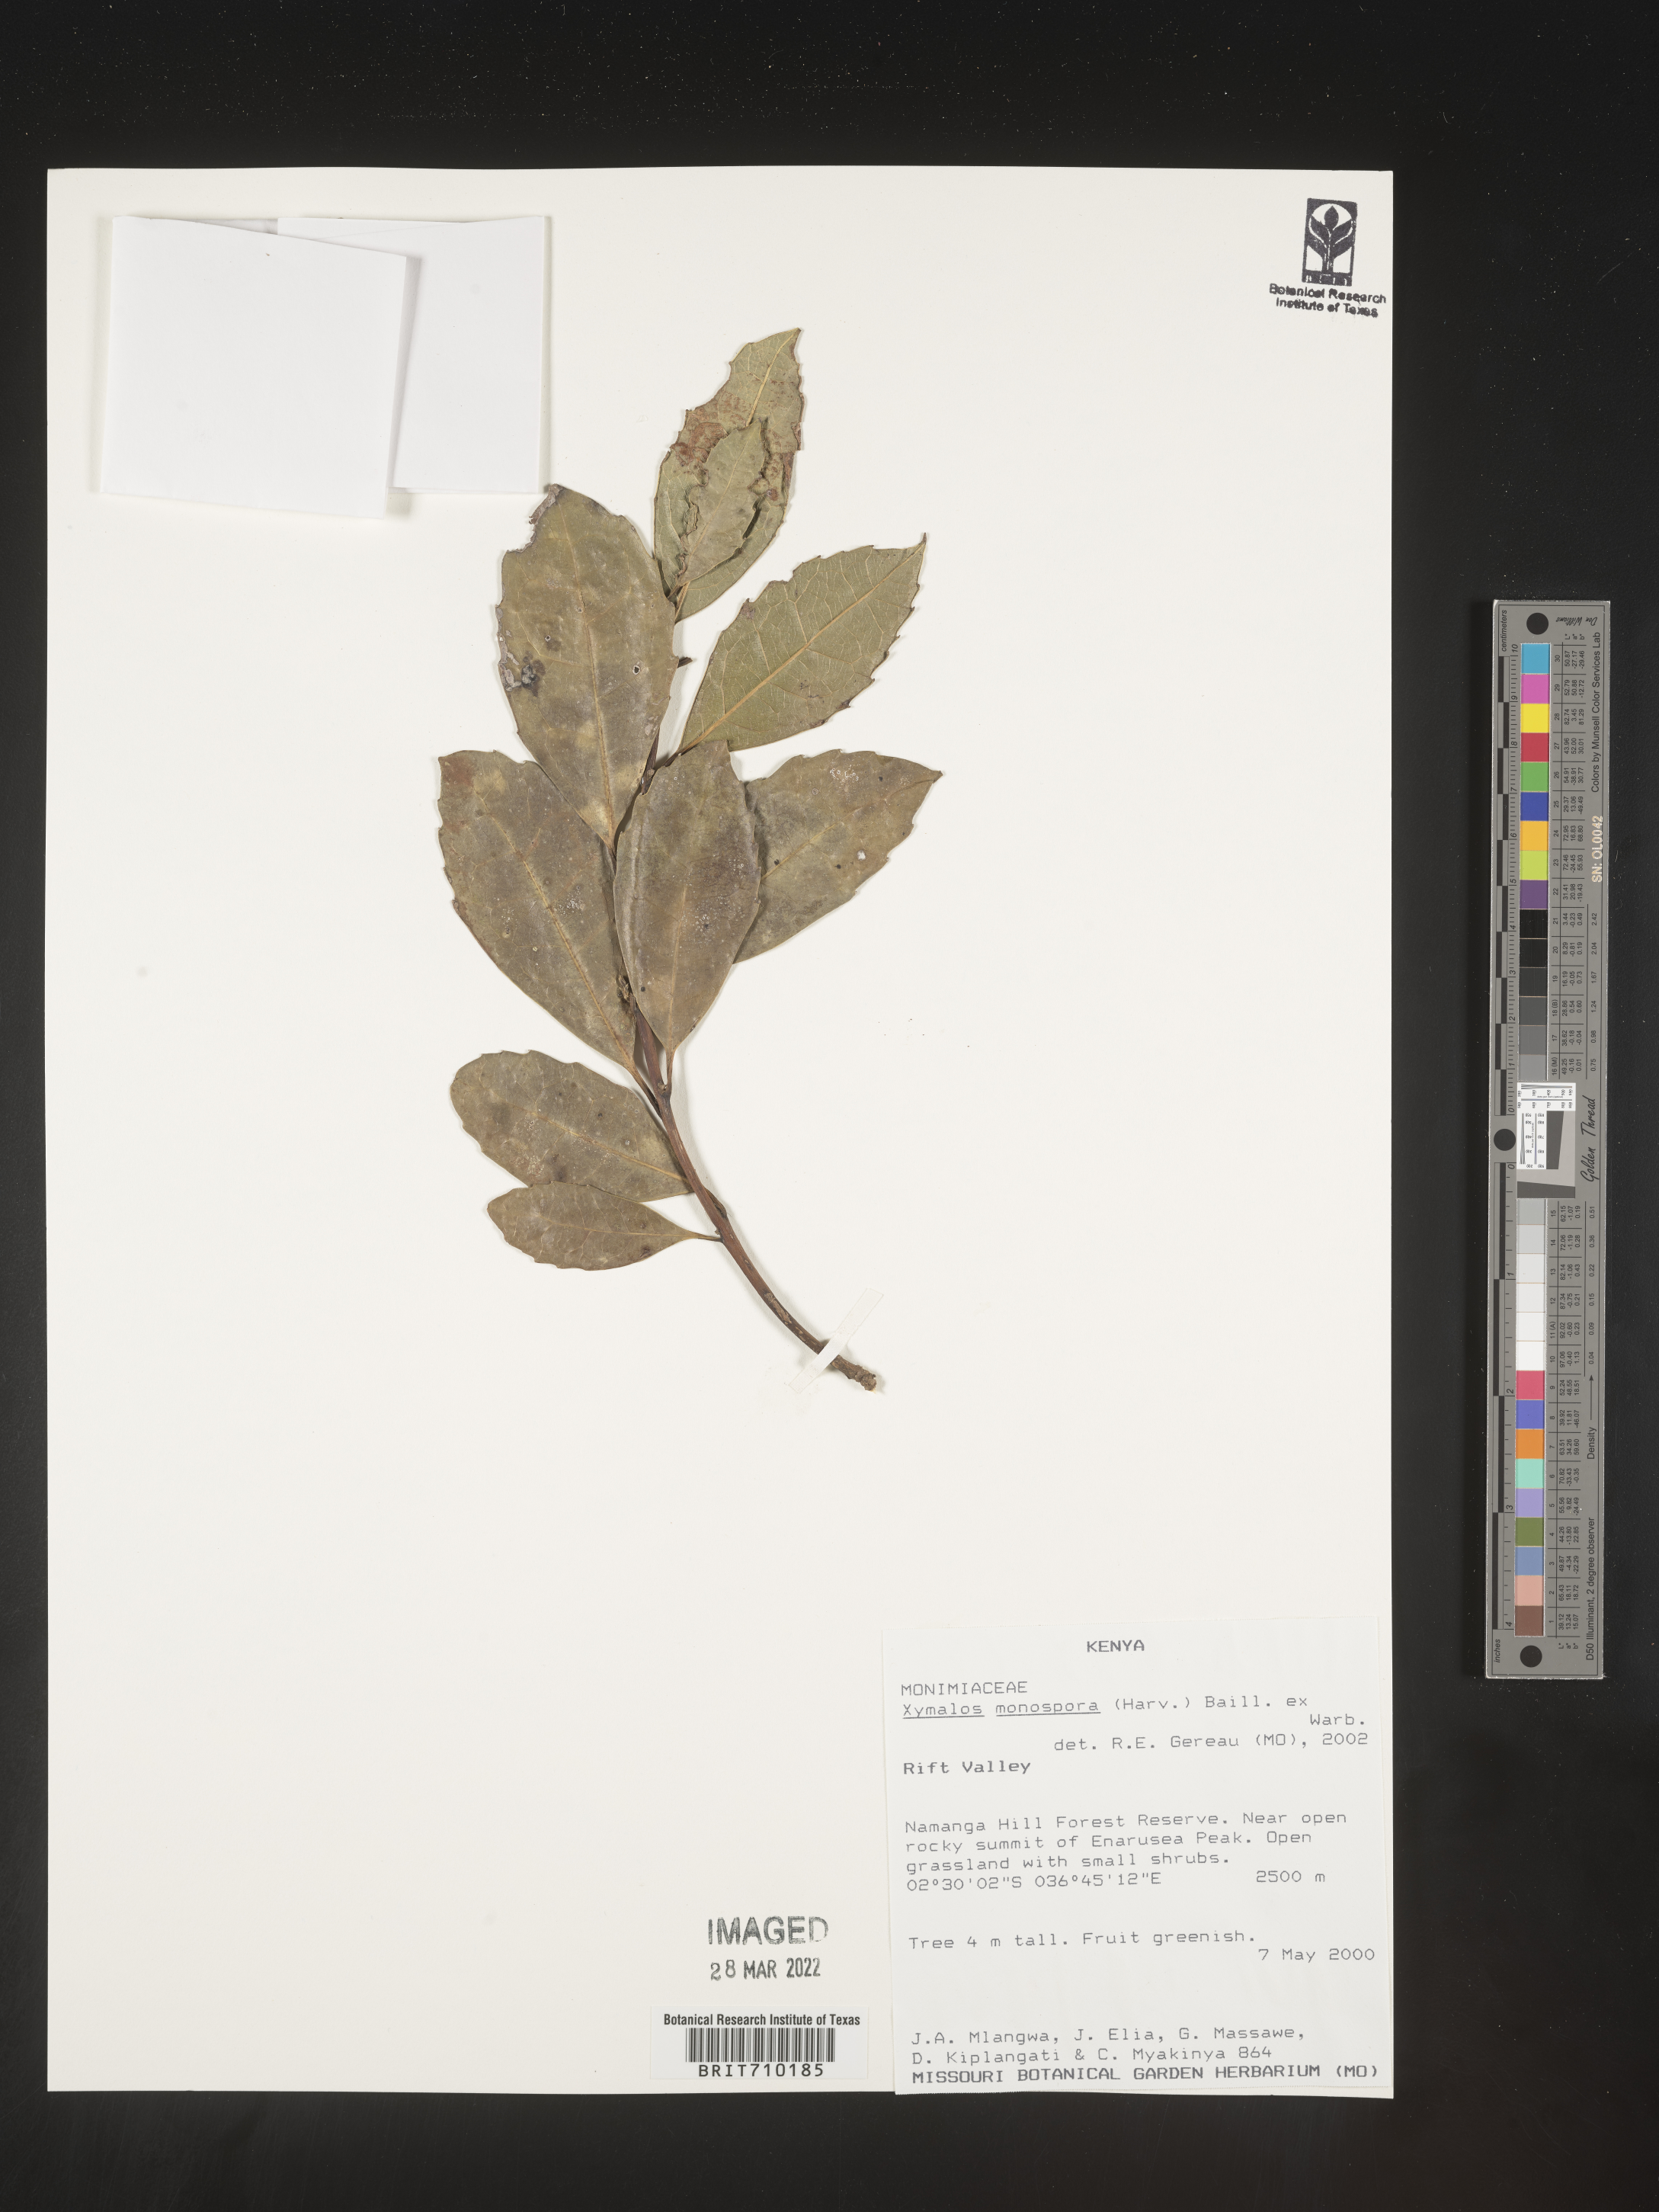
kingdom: Plantae
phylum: Tracheophyta
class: Magnoliopsida
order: Laurales
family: Monimiaceae
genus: Xymalos
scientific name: Xymalos
